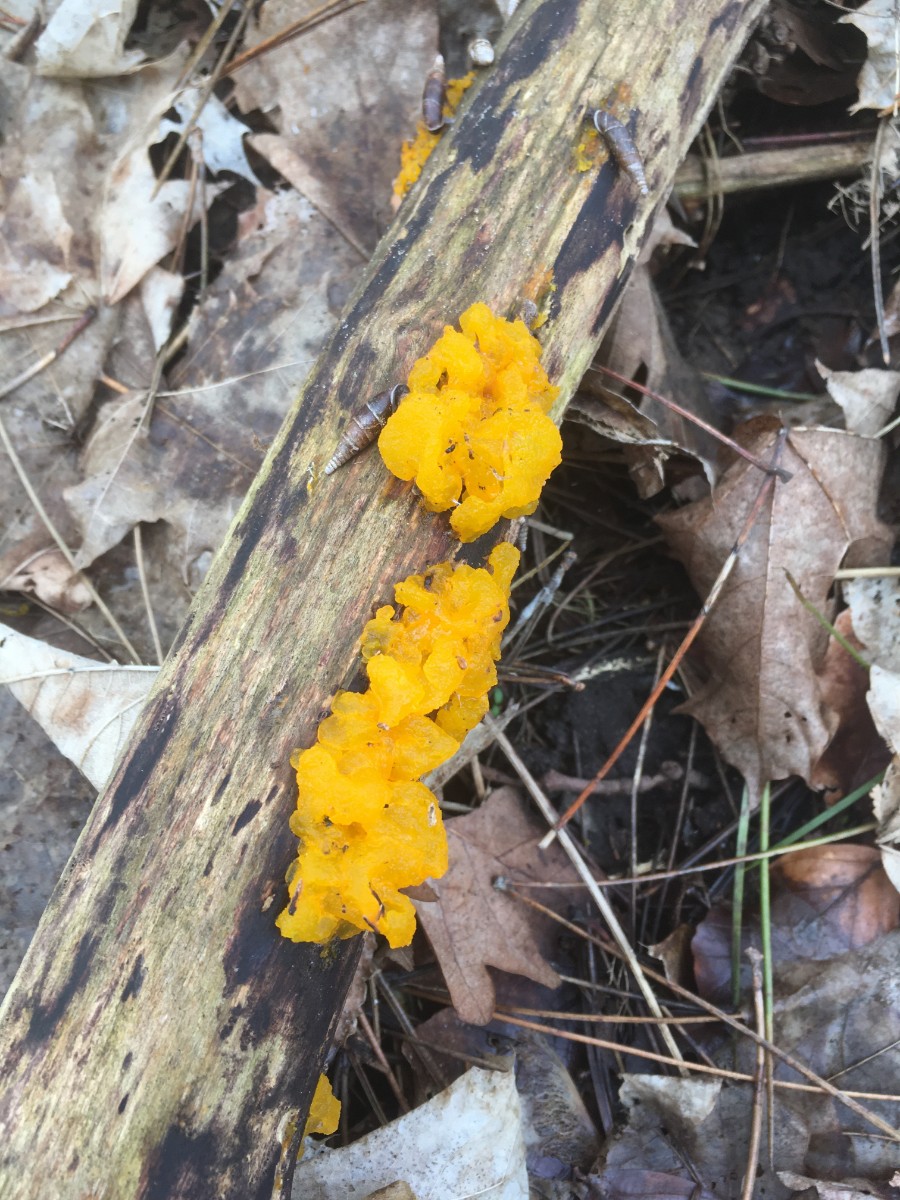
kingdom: Fungi
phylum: Basidiomycota
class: Tremellomycetes
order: Tremellales
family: Tremellaceae
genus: Tremella
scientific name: Tremella mesenterica
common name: gul bævresvamp
